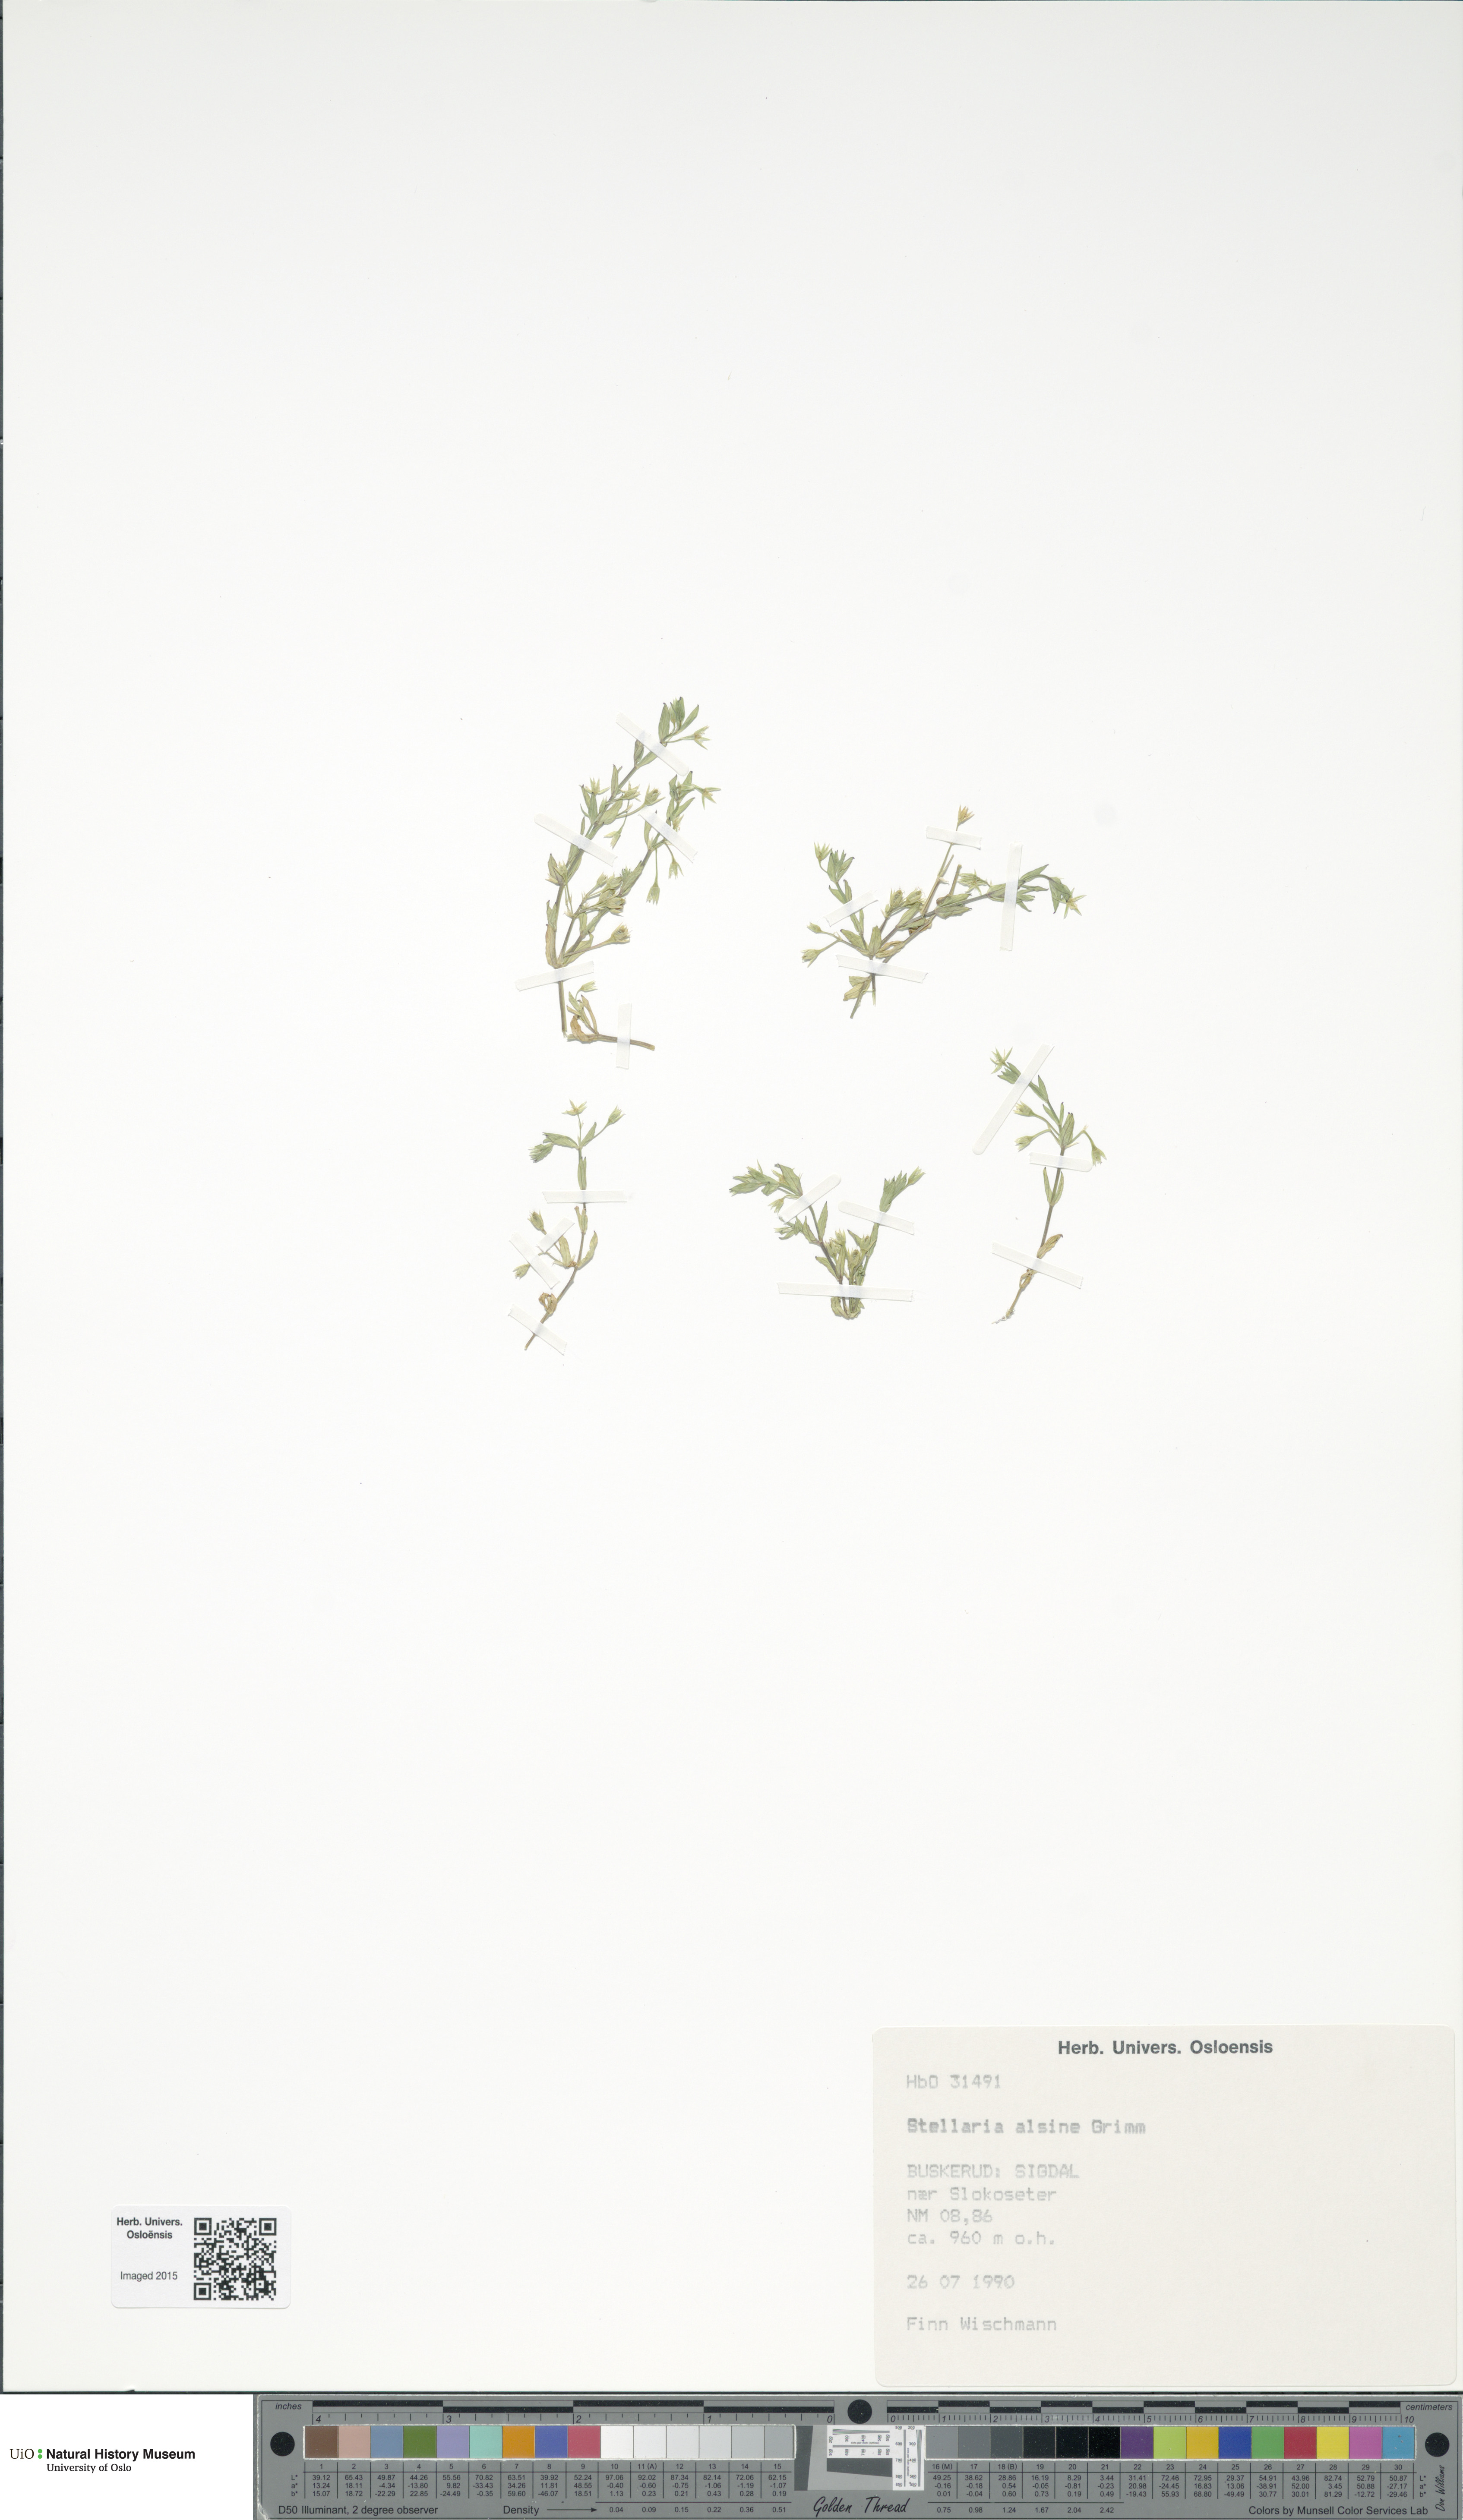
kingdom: Plantae
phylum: Tracheophyta
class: Magnoliopsida
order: Caryophyllales
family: Caryophyllaceae
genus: Stellaria
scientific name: Stellaria alsine
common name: Bog stitchwort
